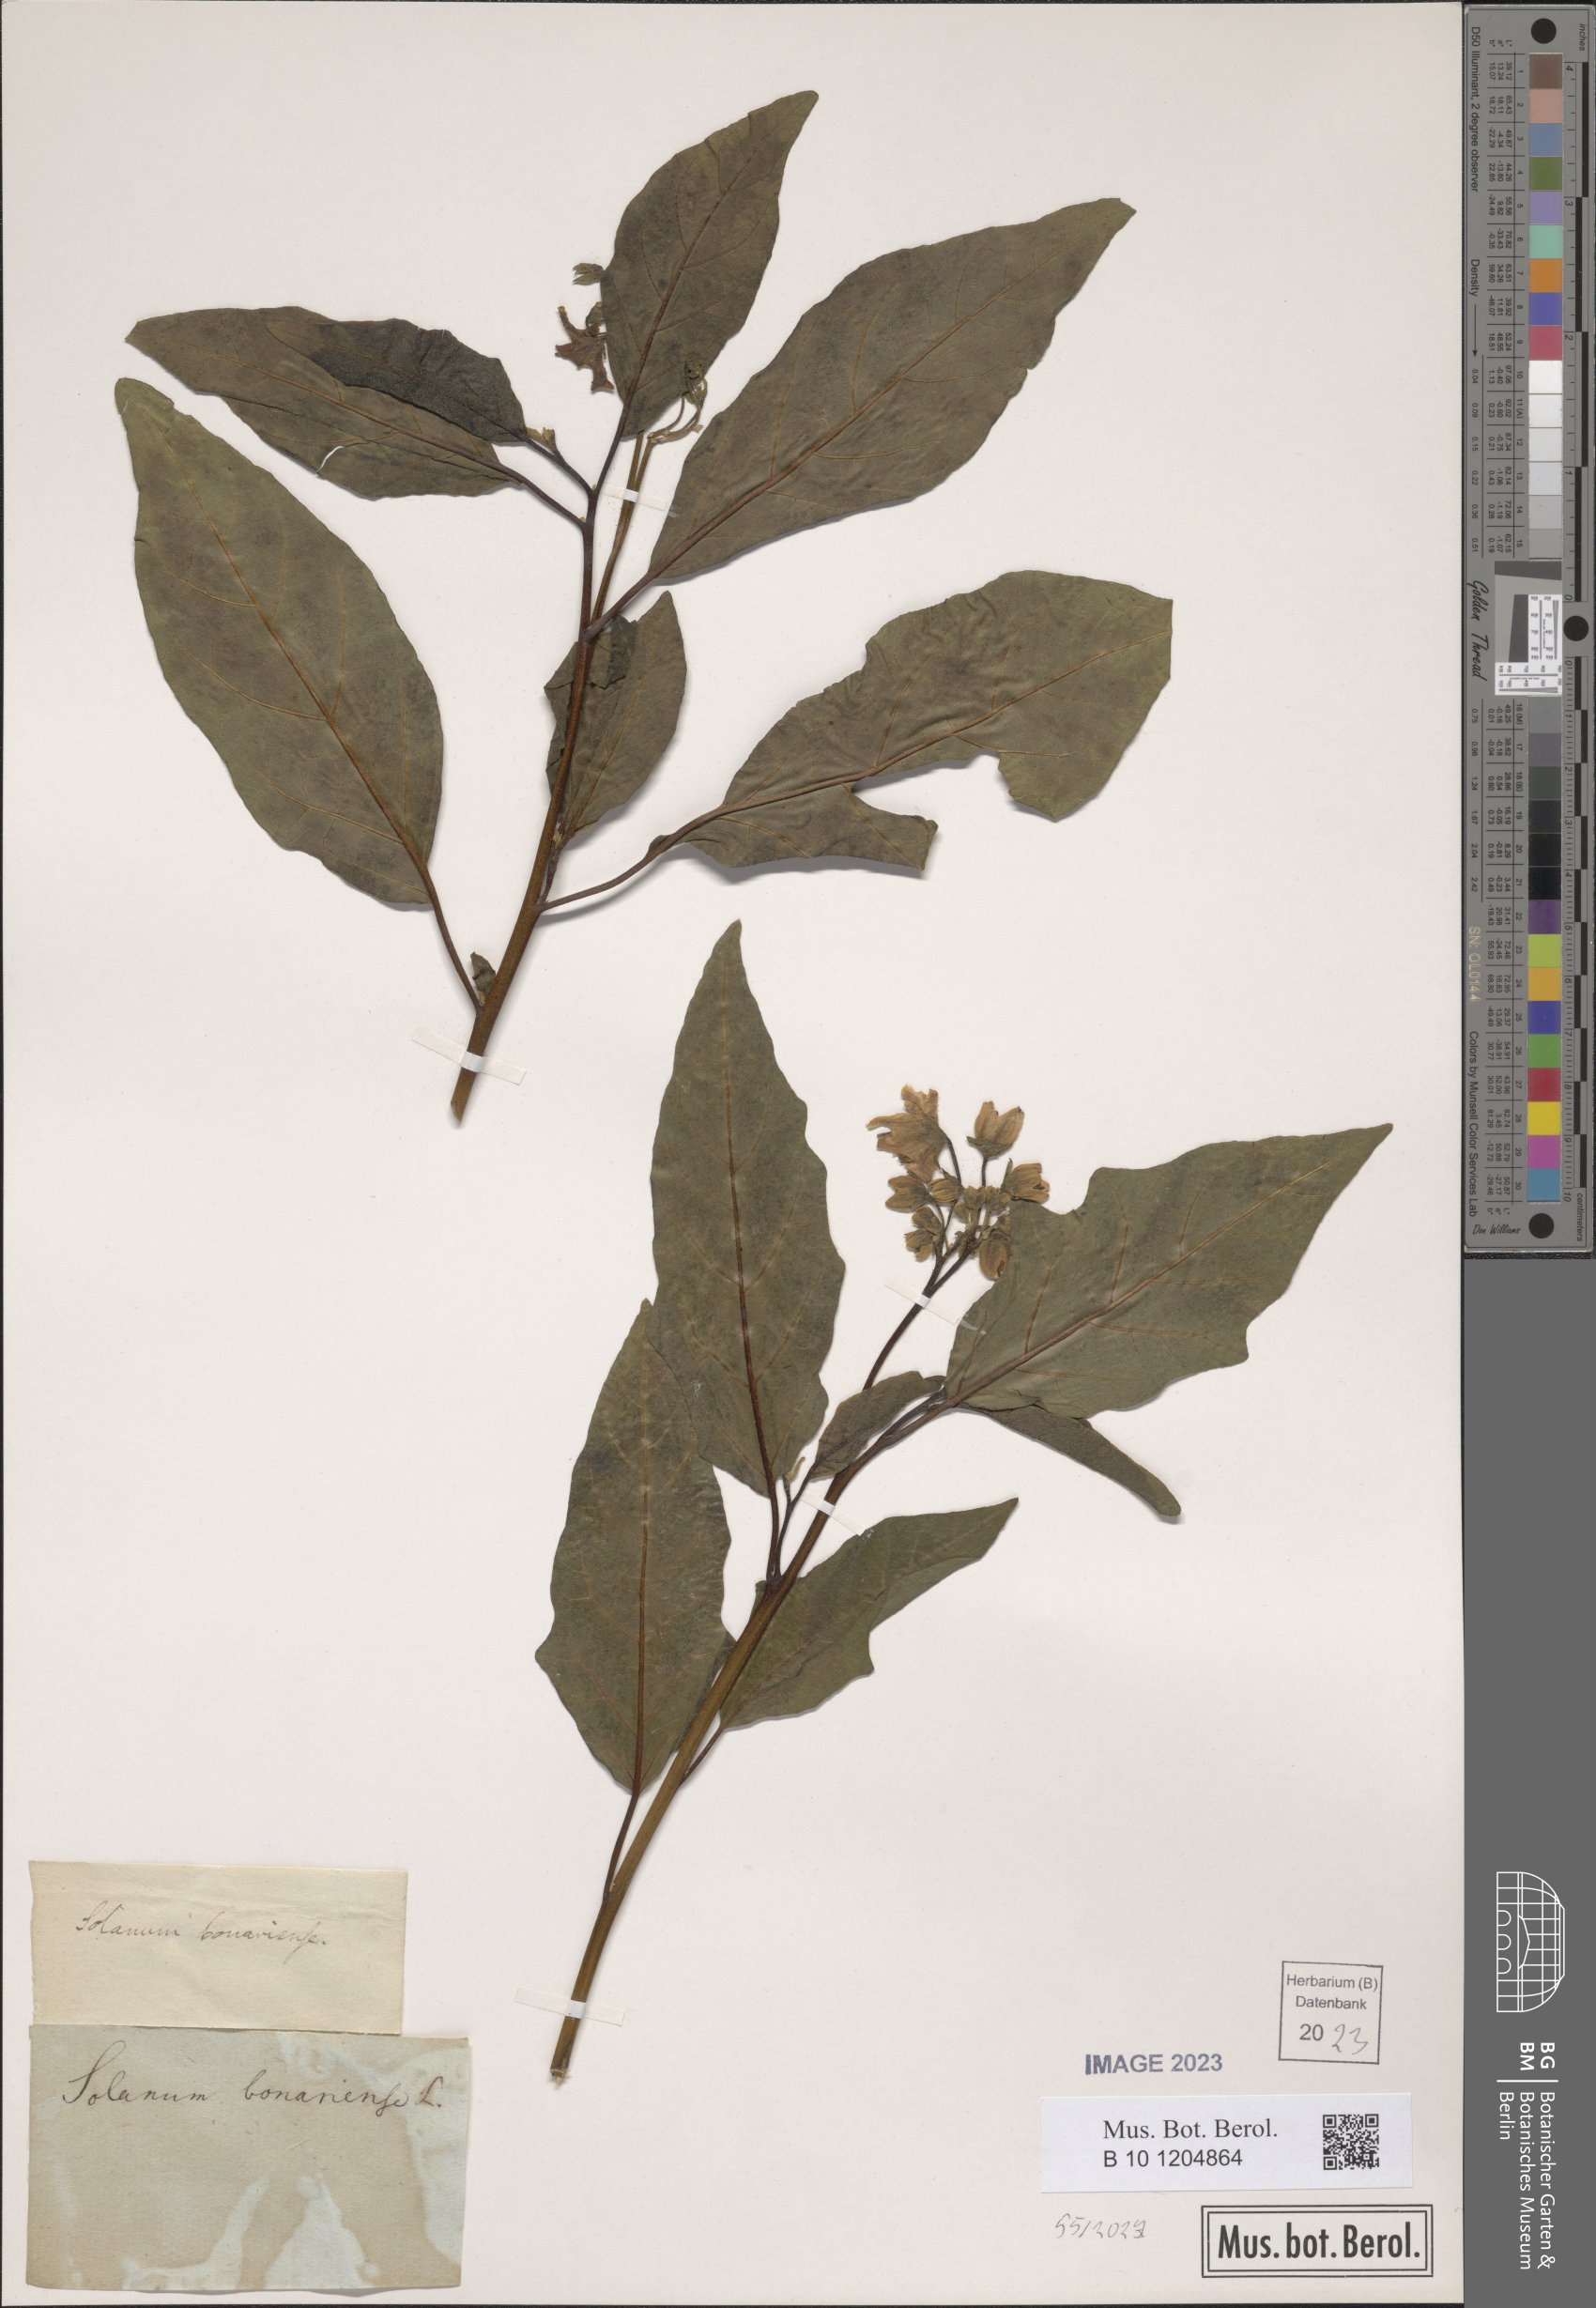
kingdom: Plantae
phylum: Tracheophyta
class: Magnoliopsida
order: Solanales
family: Solanaceae
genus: Solanum
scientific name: Solanum bonariense
